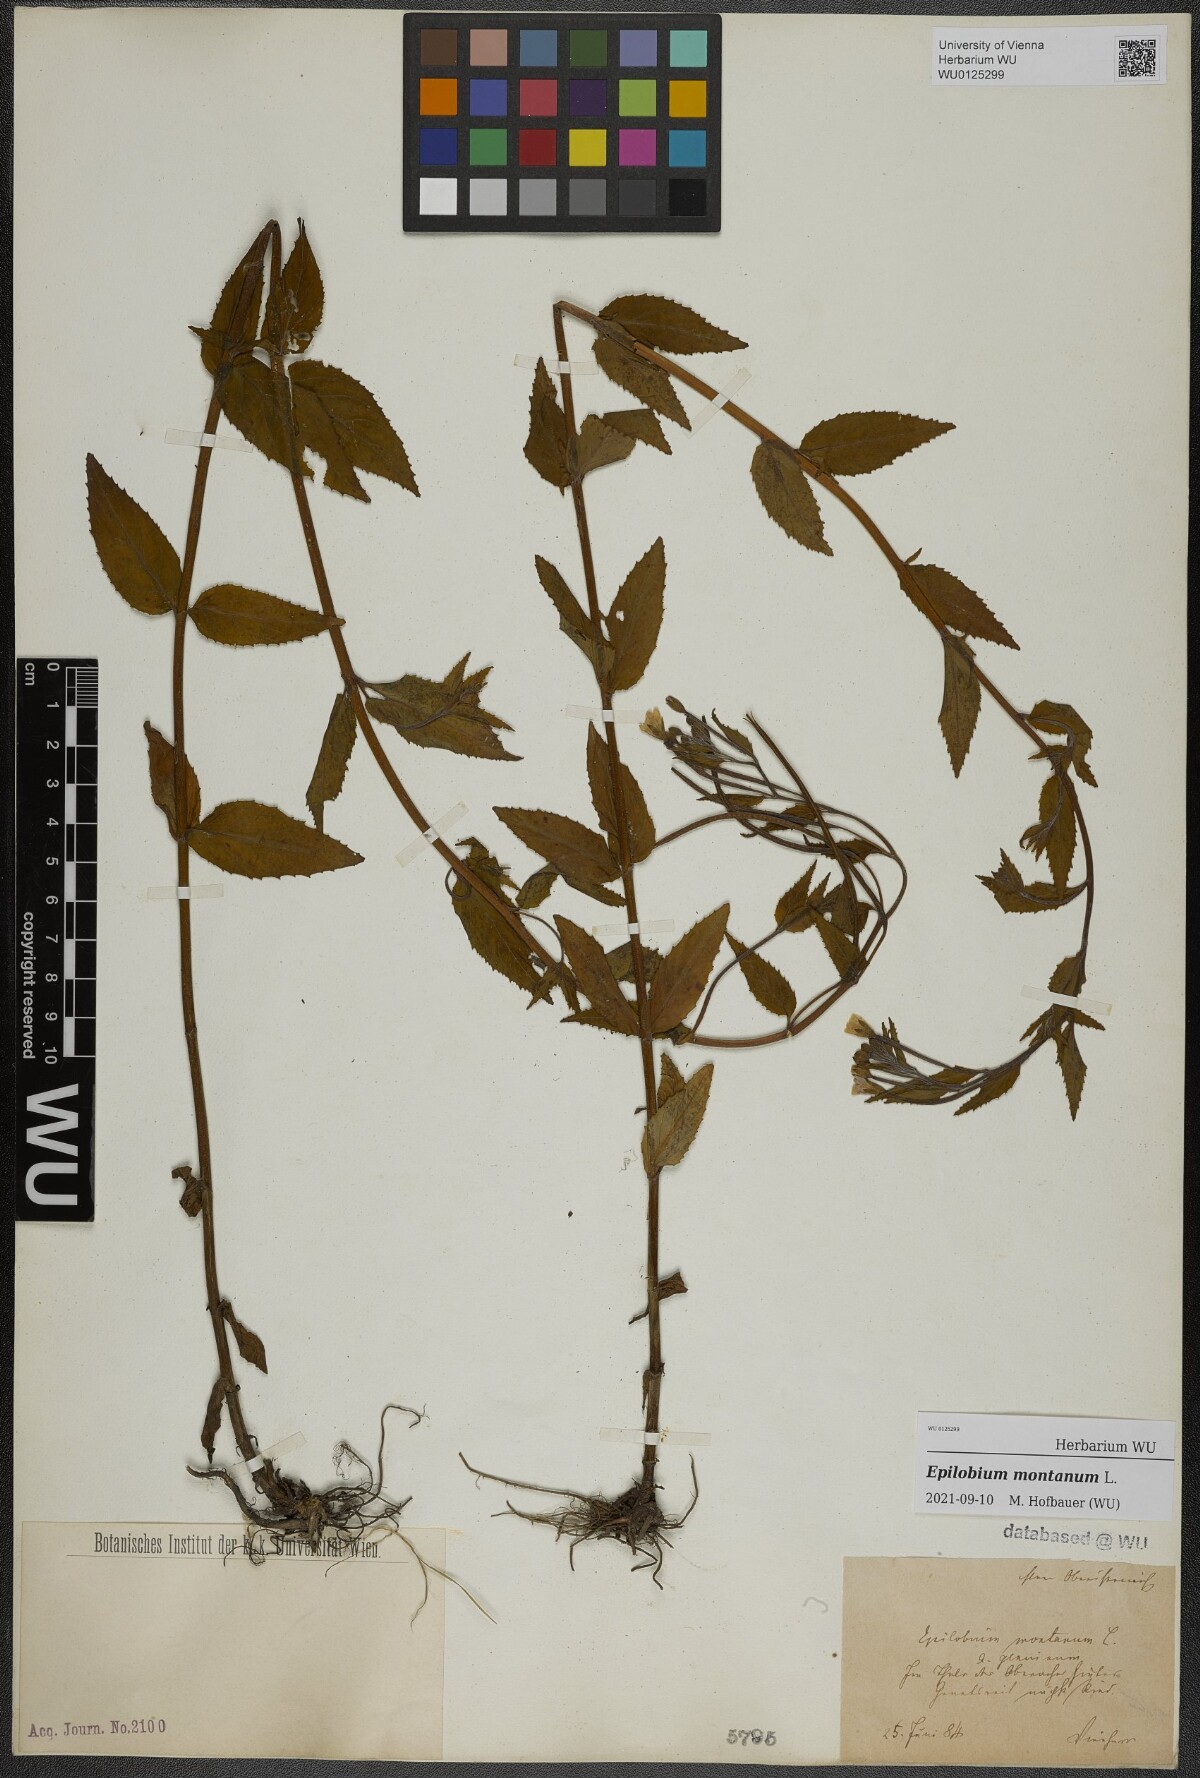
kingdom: Plantae
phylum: Tracheophyta
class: Magnoliopsida
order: Myrtales
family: Onagraceae
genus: Epilobium
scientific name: Epilobium montanum
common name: Broad-leaved willowherb
